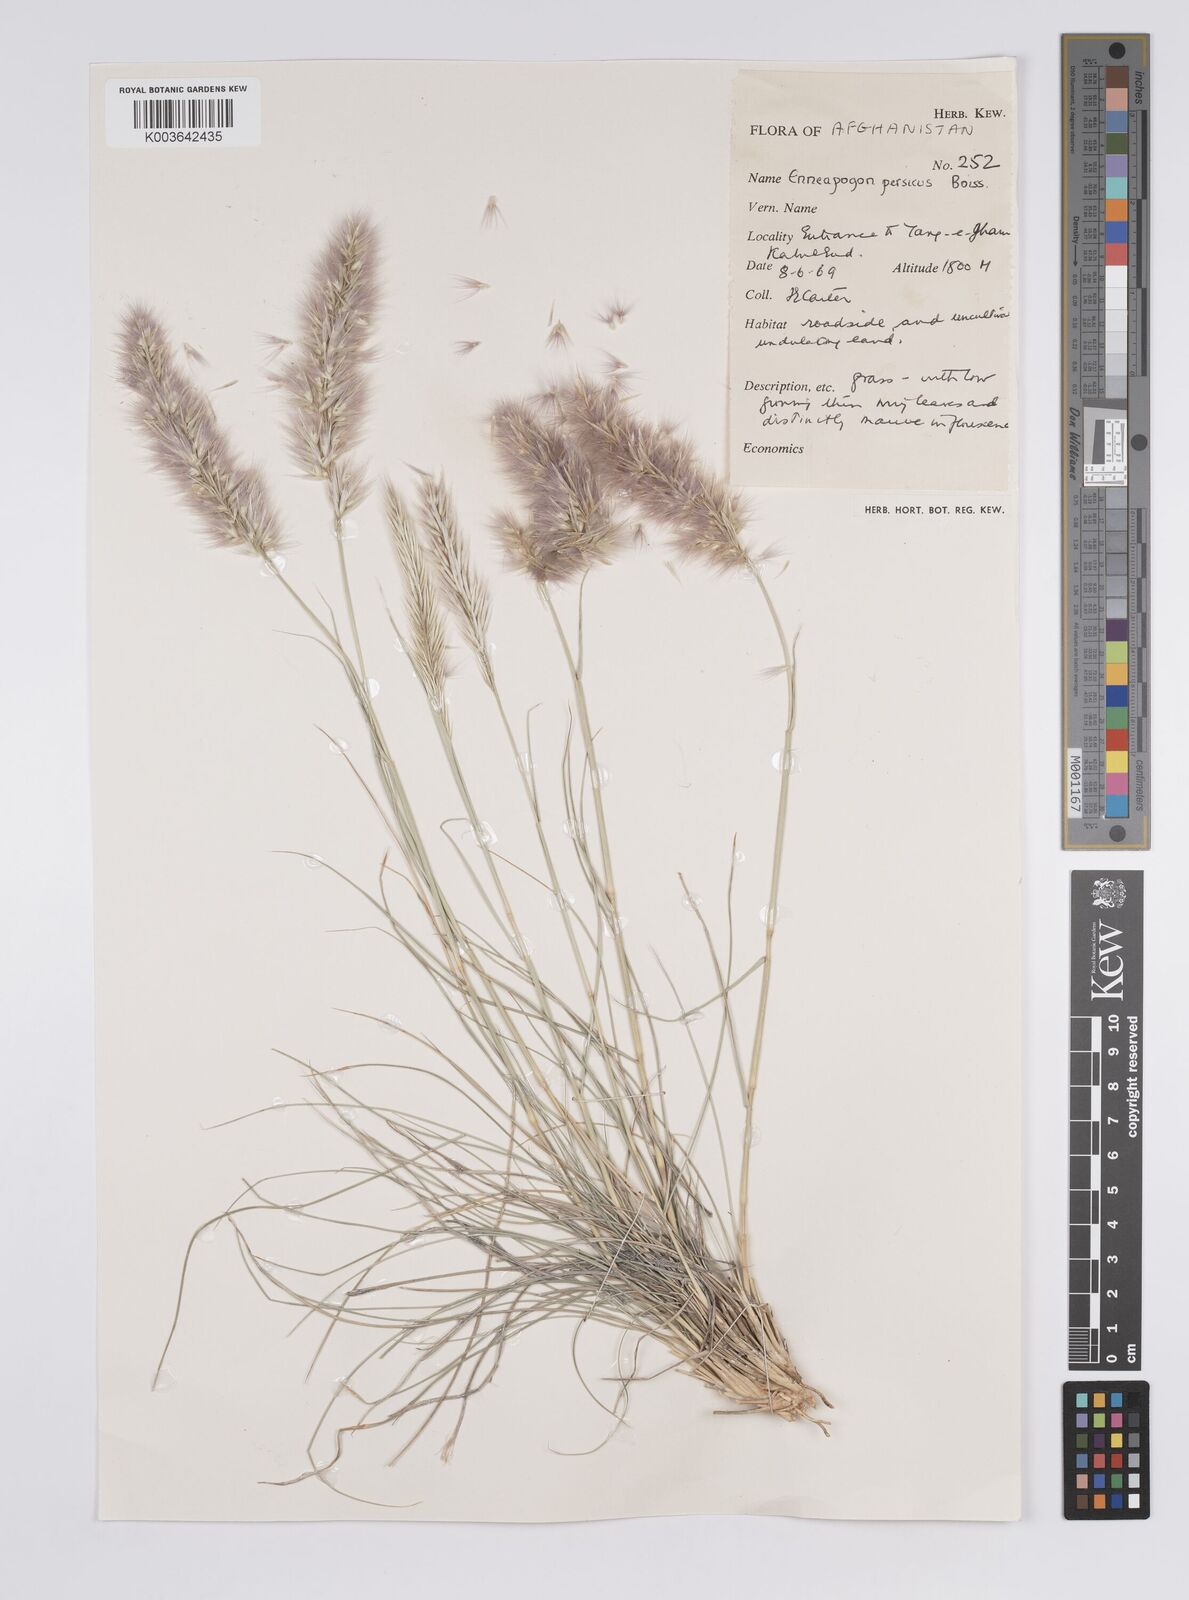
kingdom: Plantae
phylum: Tracheophyta
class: Liliopsida
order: Poales
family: Poaceae
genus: Enneapogon
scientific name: Enneapogon persicus
